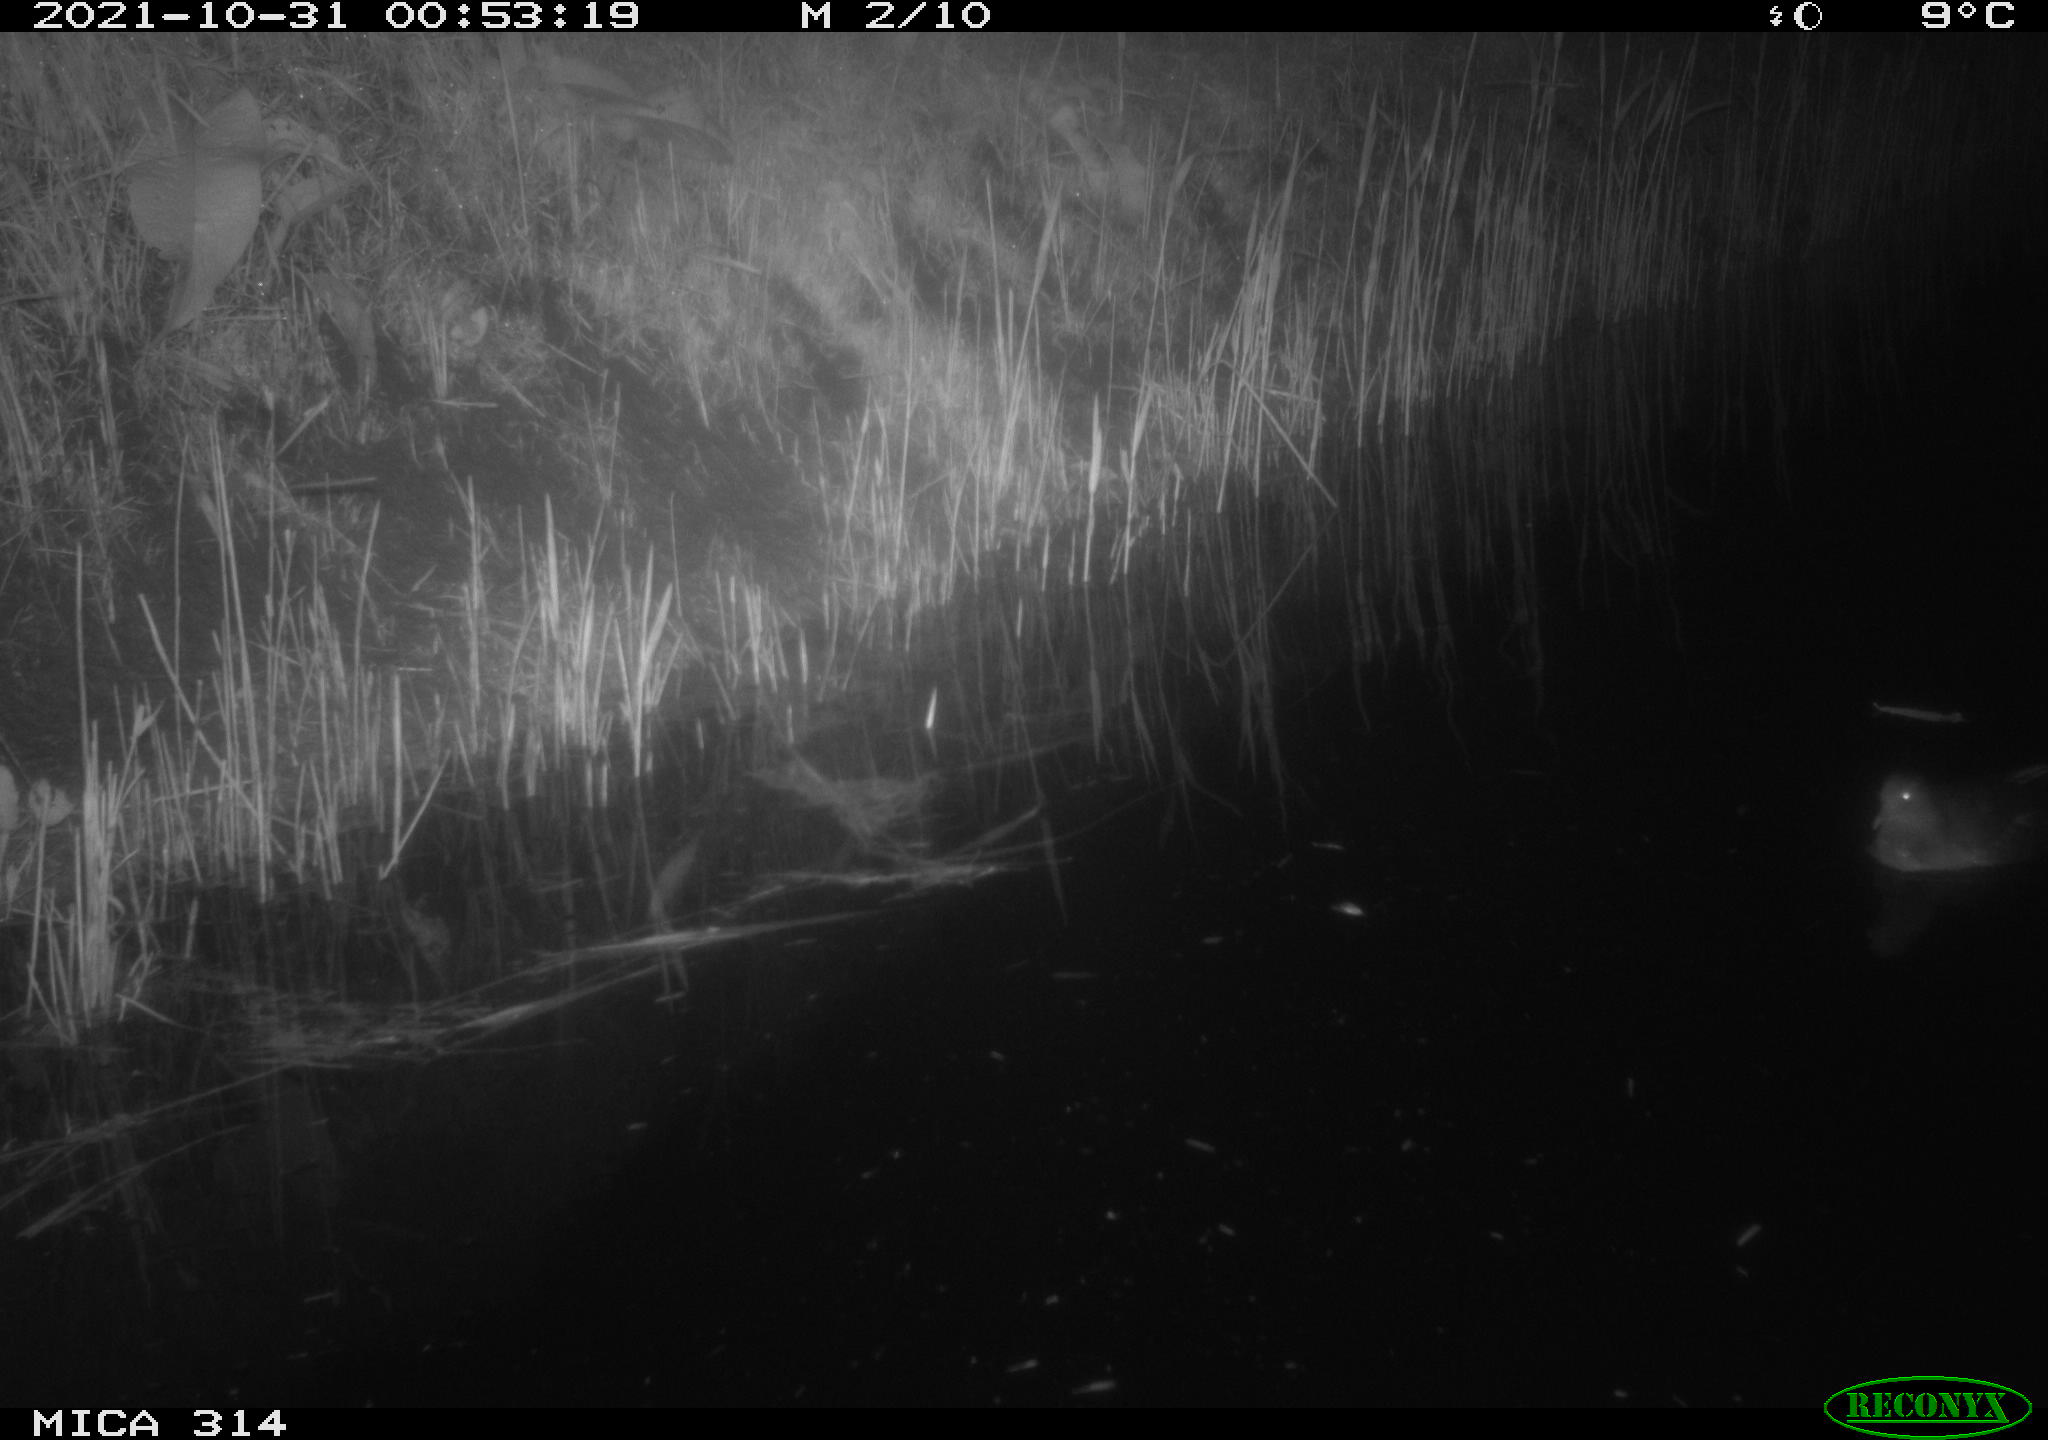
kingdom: Animalia
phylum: Chordata
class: Aves
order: Gruiformes
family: Rallidae
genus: Gallinula
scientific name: Gallinula chloropus
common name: Common moorhen
